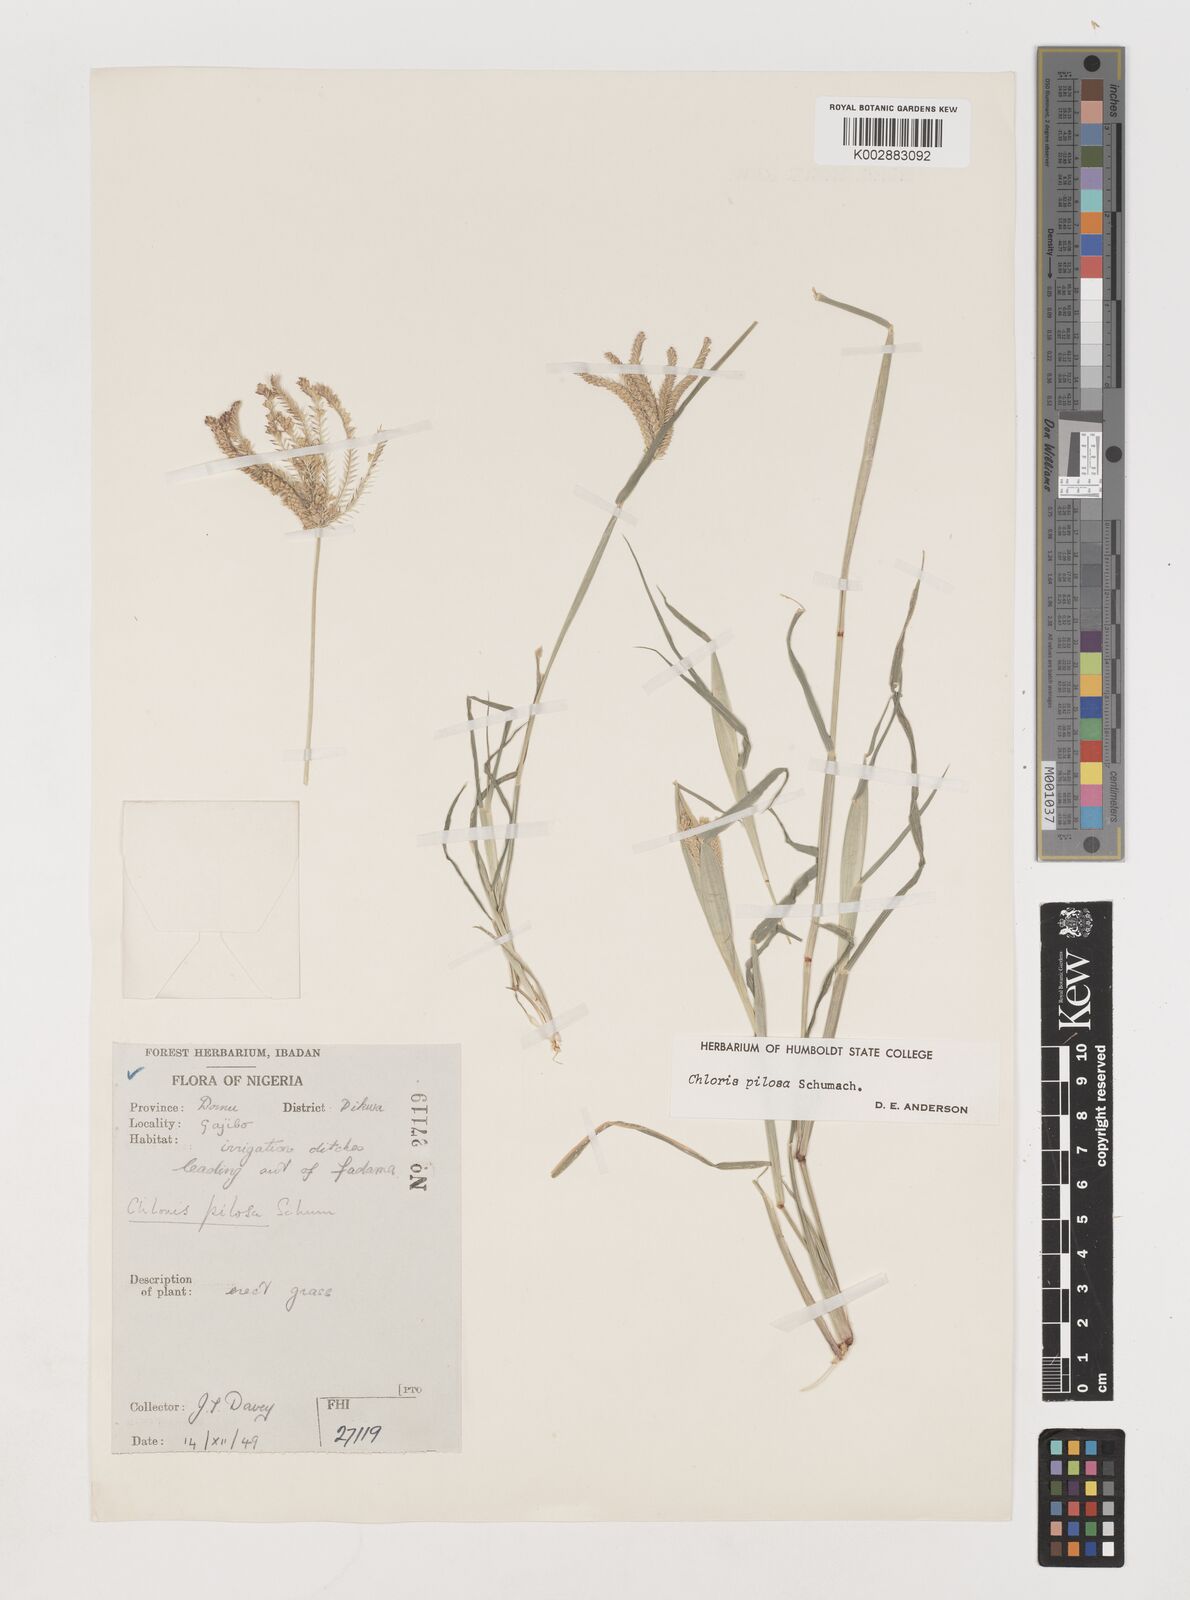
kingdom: Plantae
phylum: Tracheophyta
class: Liliopsida
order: Poales
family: Poaceae
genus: Chloris
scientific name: Chloris pilosa
